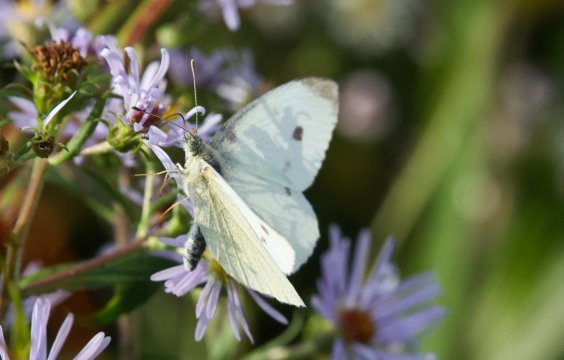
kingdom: Animalia
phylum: Arthropoda
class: Insecta
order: Lepidoptera
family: Pieridae
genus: Pieris
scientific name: Pieris rapae
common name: Cabbage White
